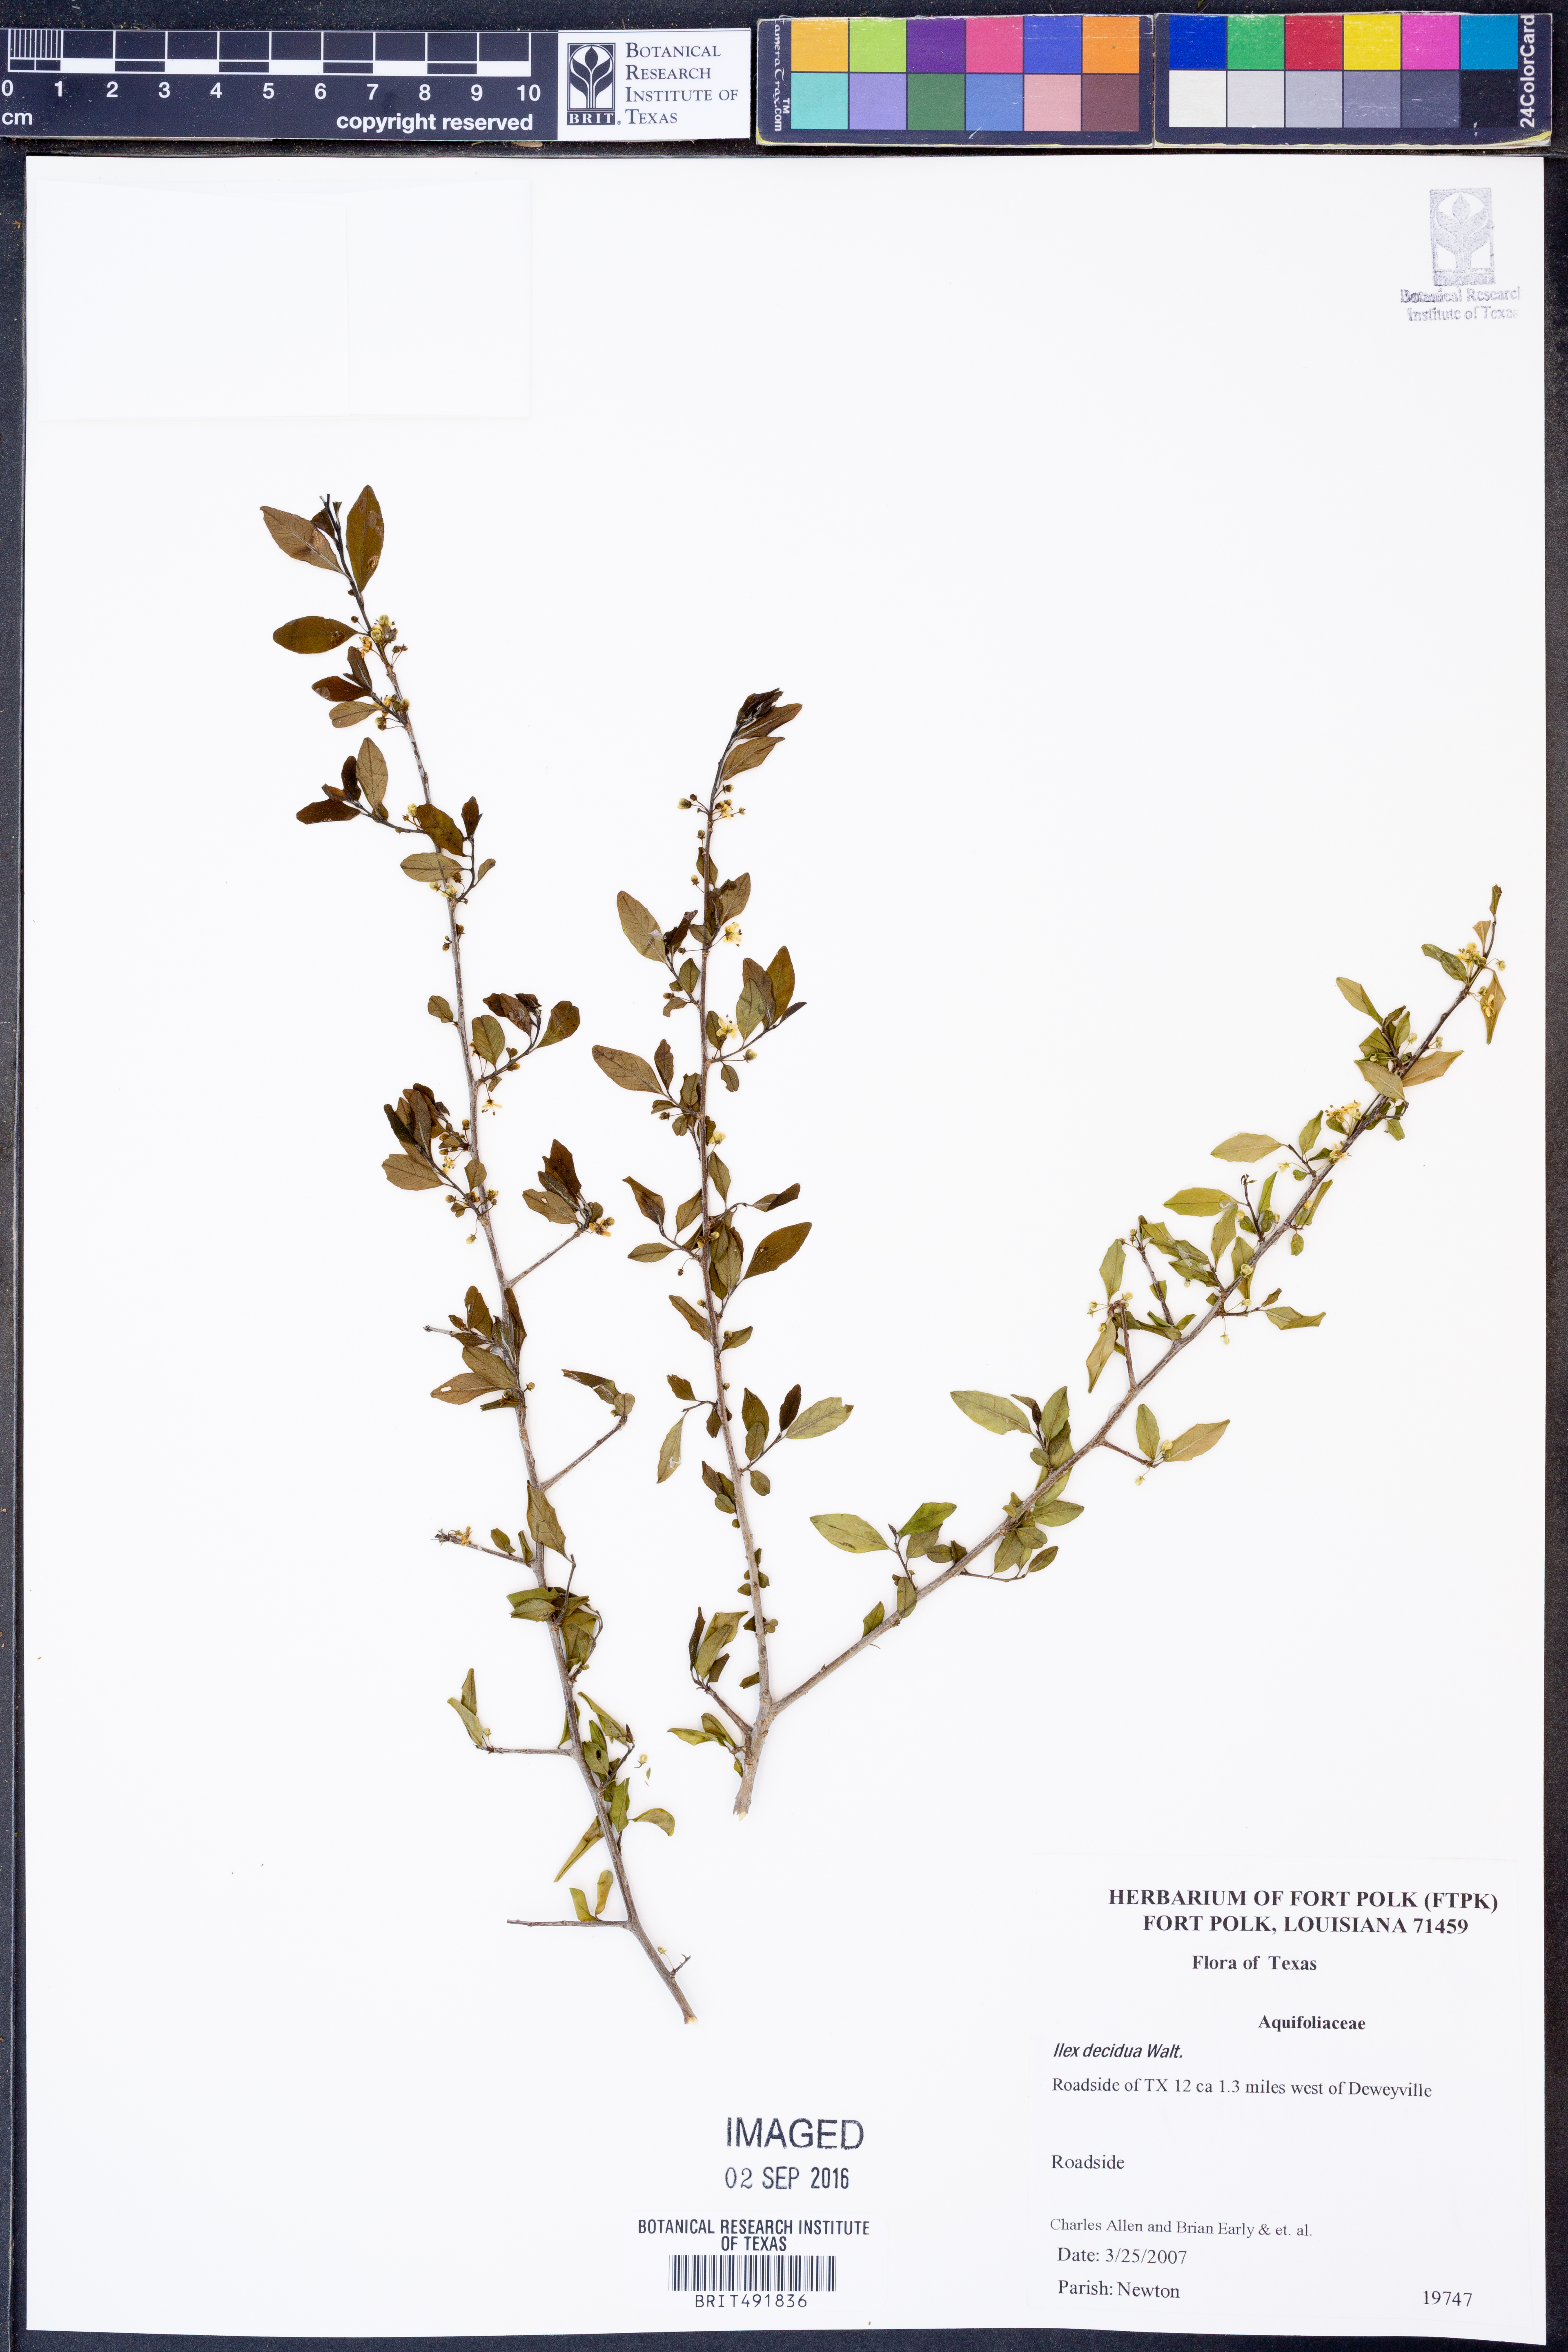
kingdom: Plantae
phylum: Tracheophyta
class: Magnoliopsida
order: Aquifoliales
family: Aquifoliaceae
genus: Ilex
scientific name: Ilex decidua
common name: Possum-haw
